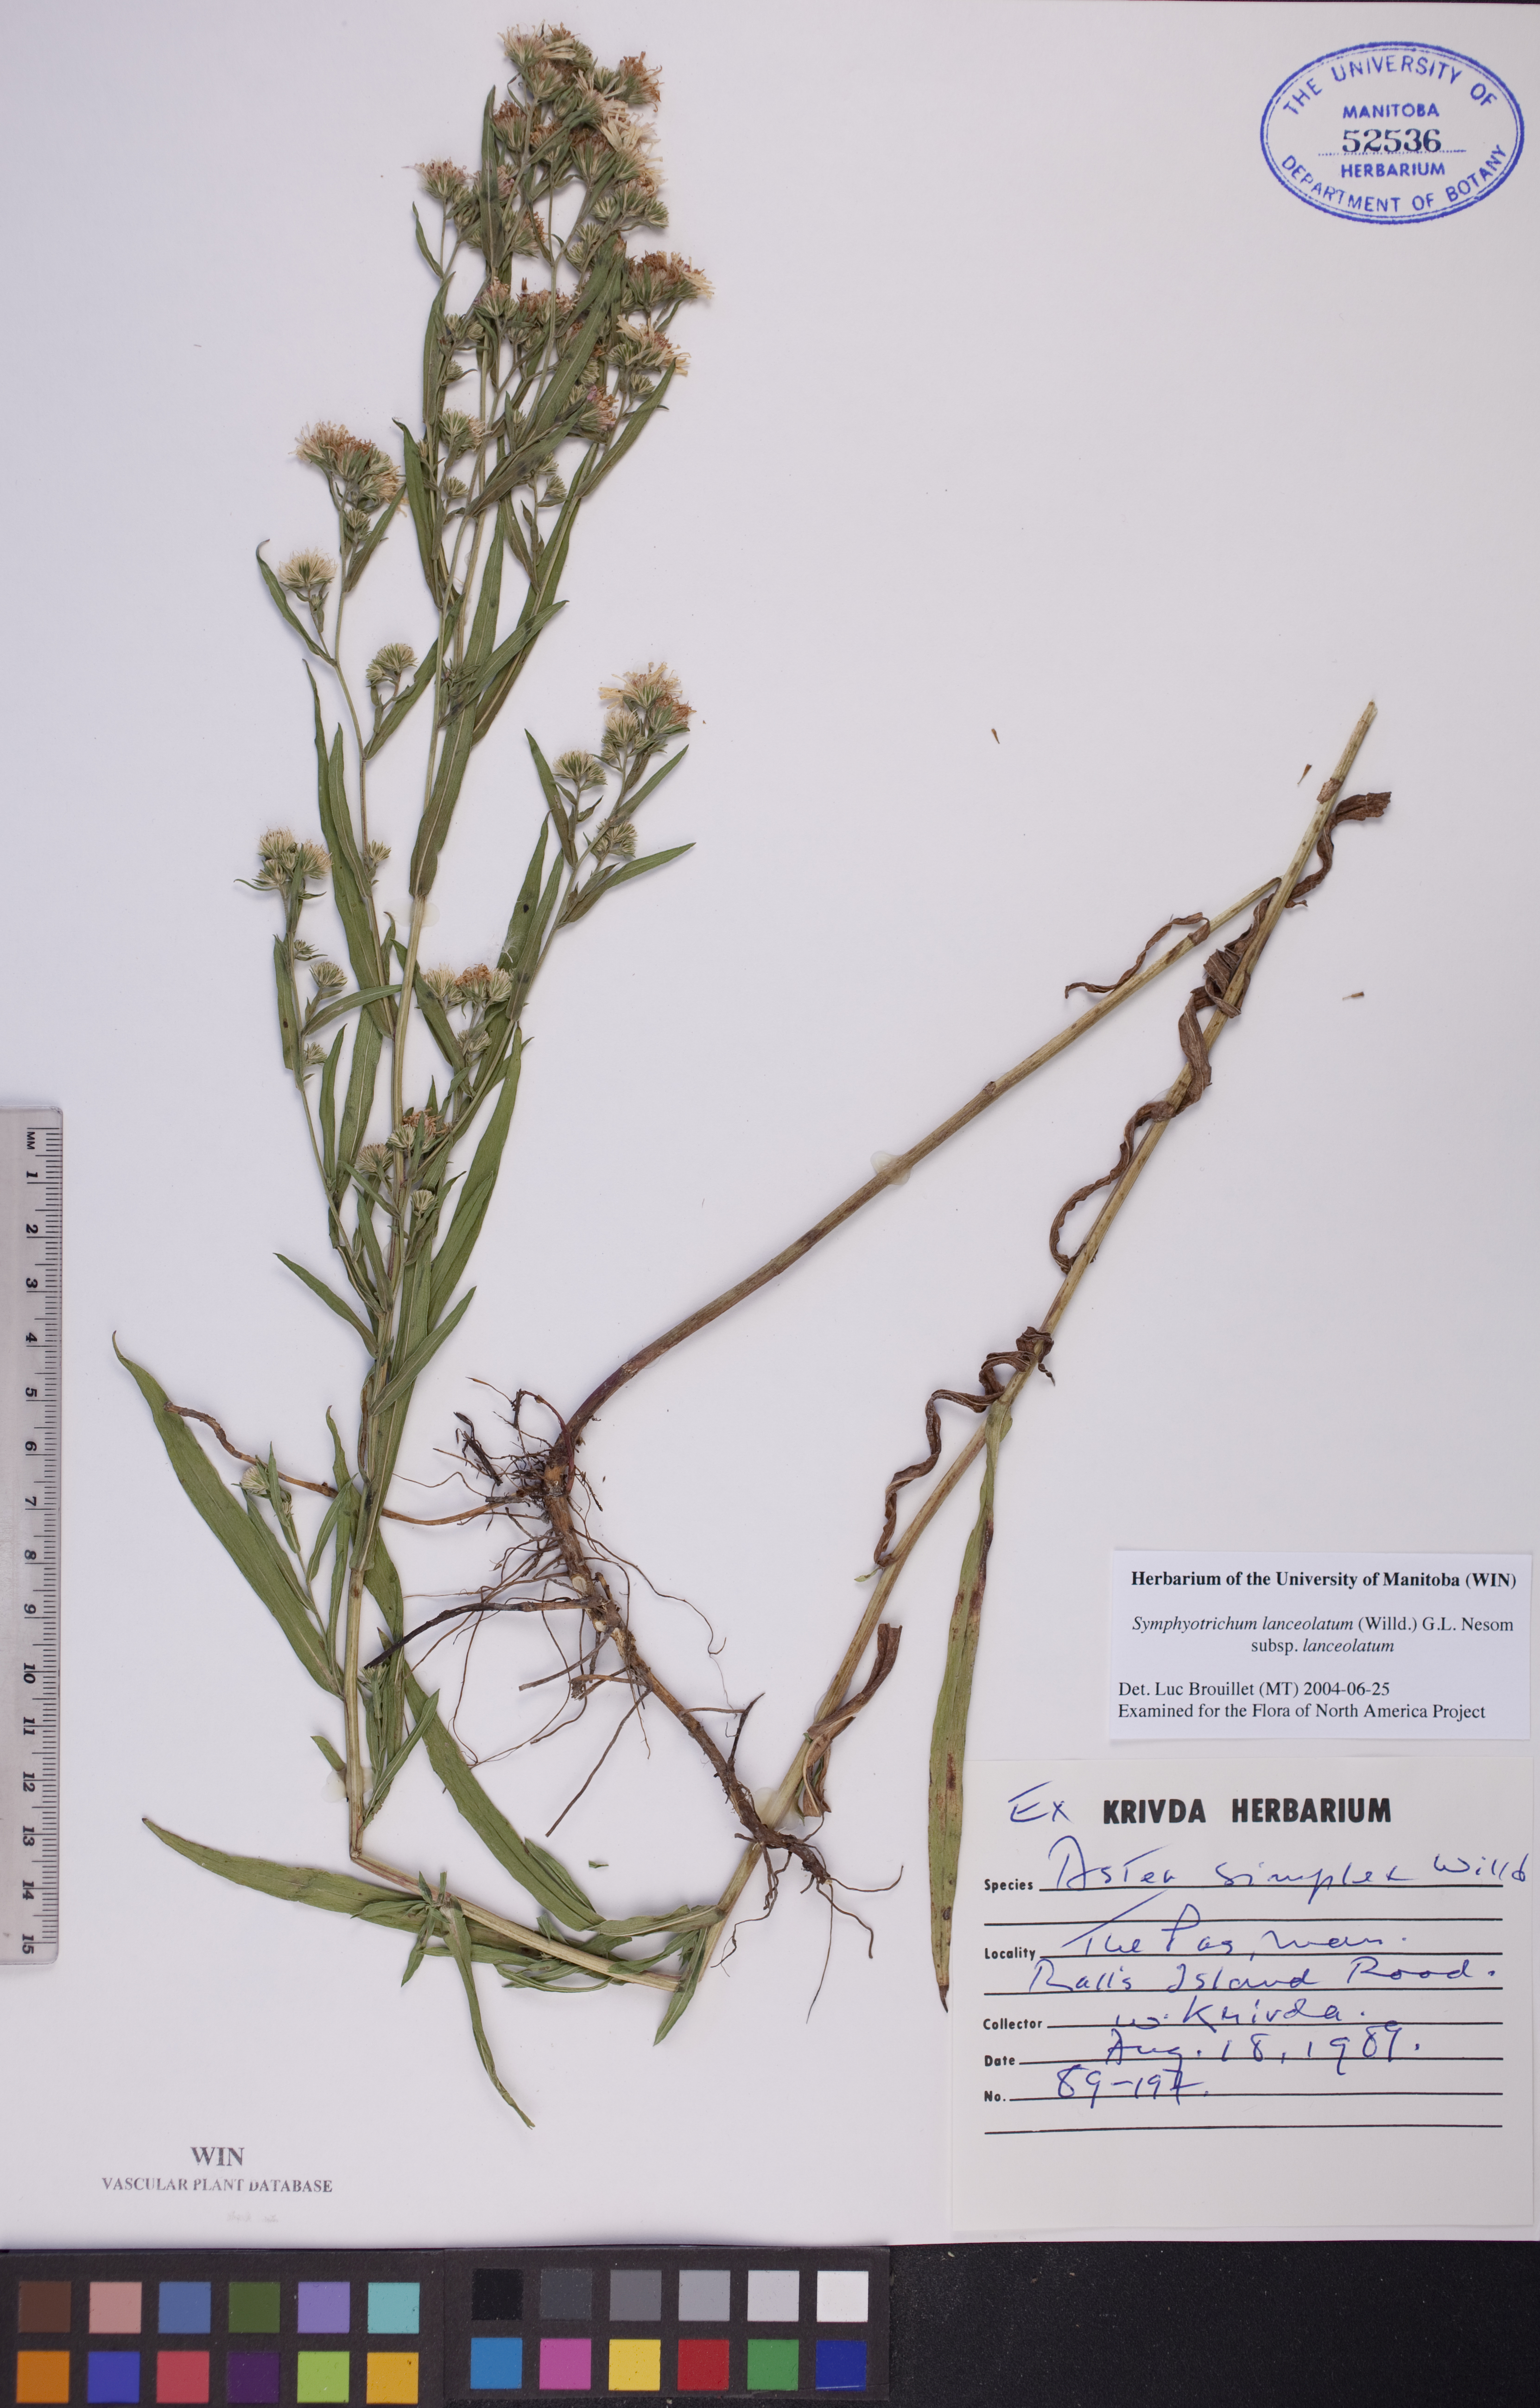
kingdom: Plantae
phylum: Tracheophyta
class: Magnoliopsida
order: Asterales
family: Asteraceae
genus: Symphyotrichum
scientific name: Symphyotrichum lanceolatum
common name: Panicled aster
